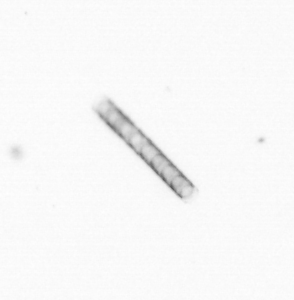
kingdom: Chromista
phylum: Ochrophyta
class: Bacillariophyceae
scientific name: Bacillariophyceae
